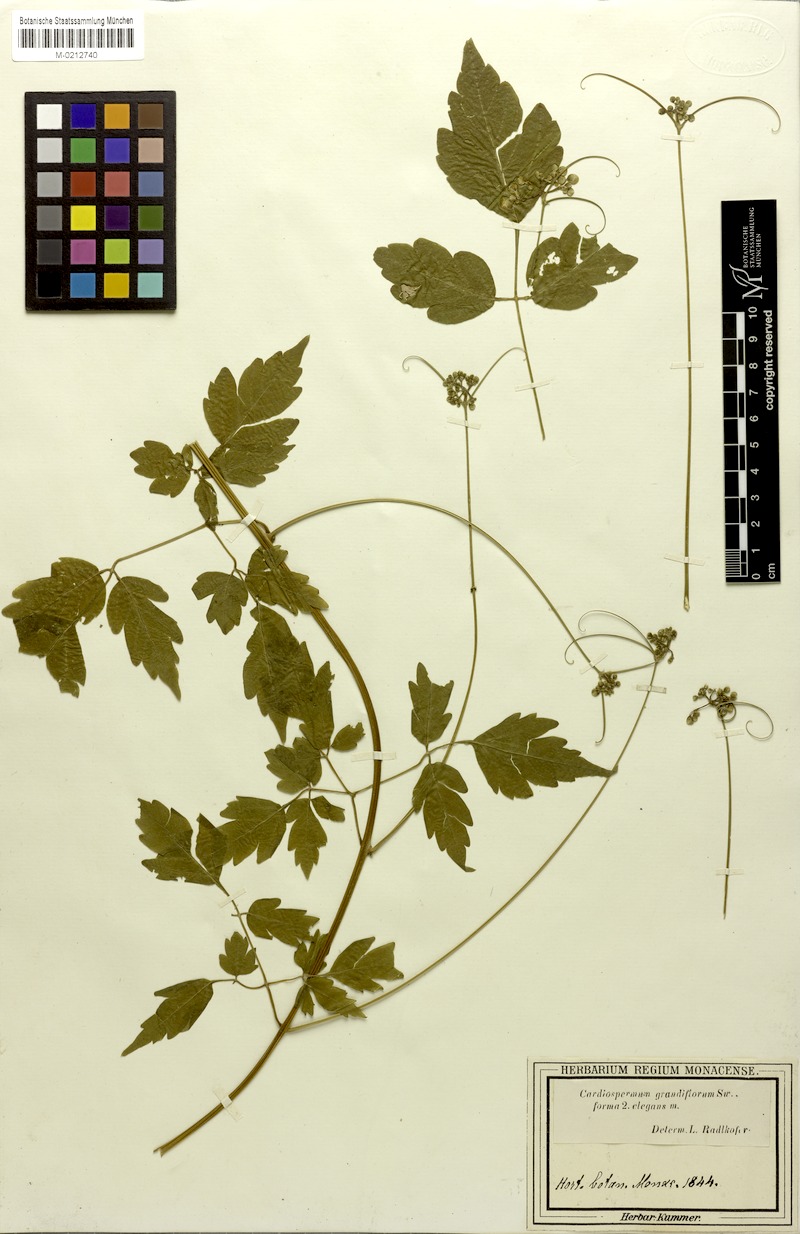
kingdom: Plantae
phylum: Tracheophyta
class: Magnoliopsida
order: Sapindales
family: Sapindaceae
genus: Cardiospermum
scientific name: Cardiospermum grandiflorum
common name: Balloon vine
